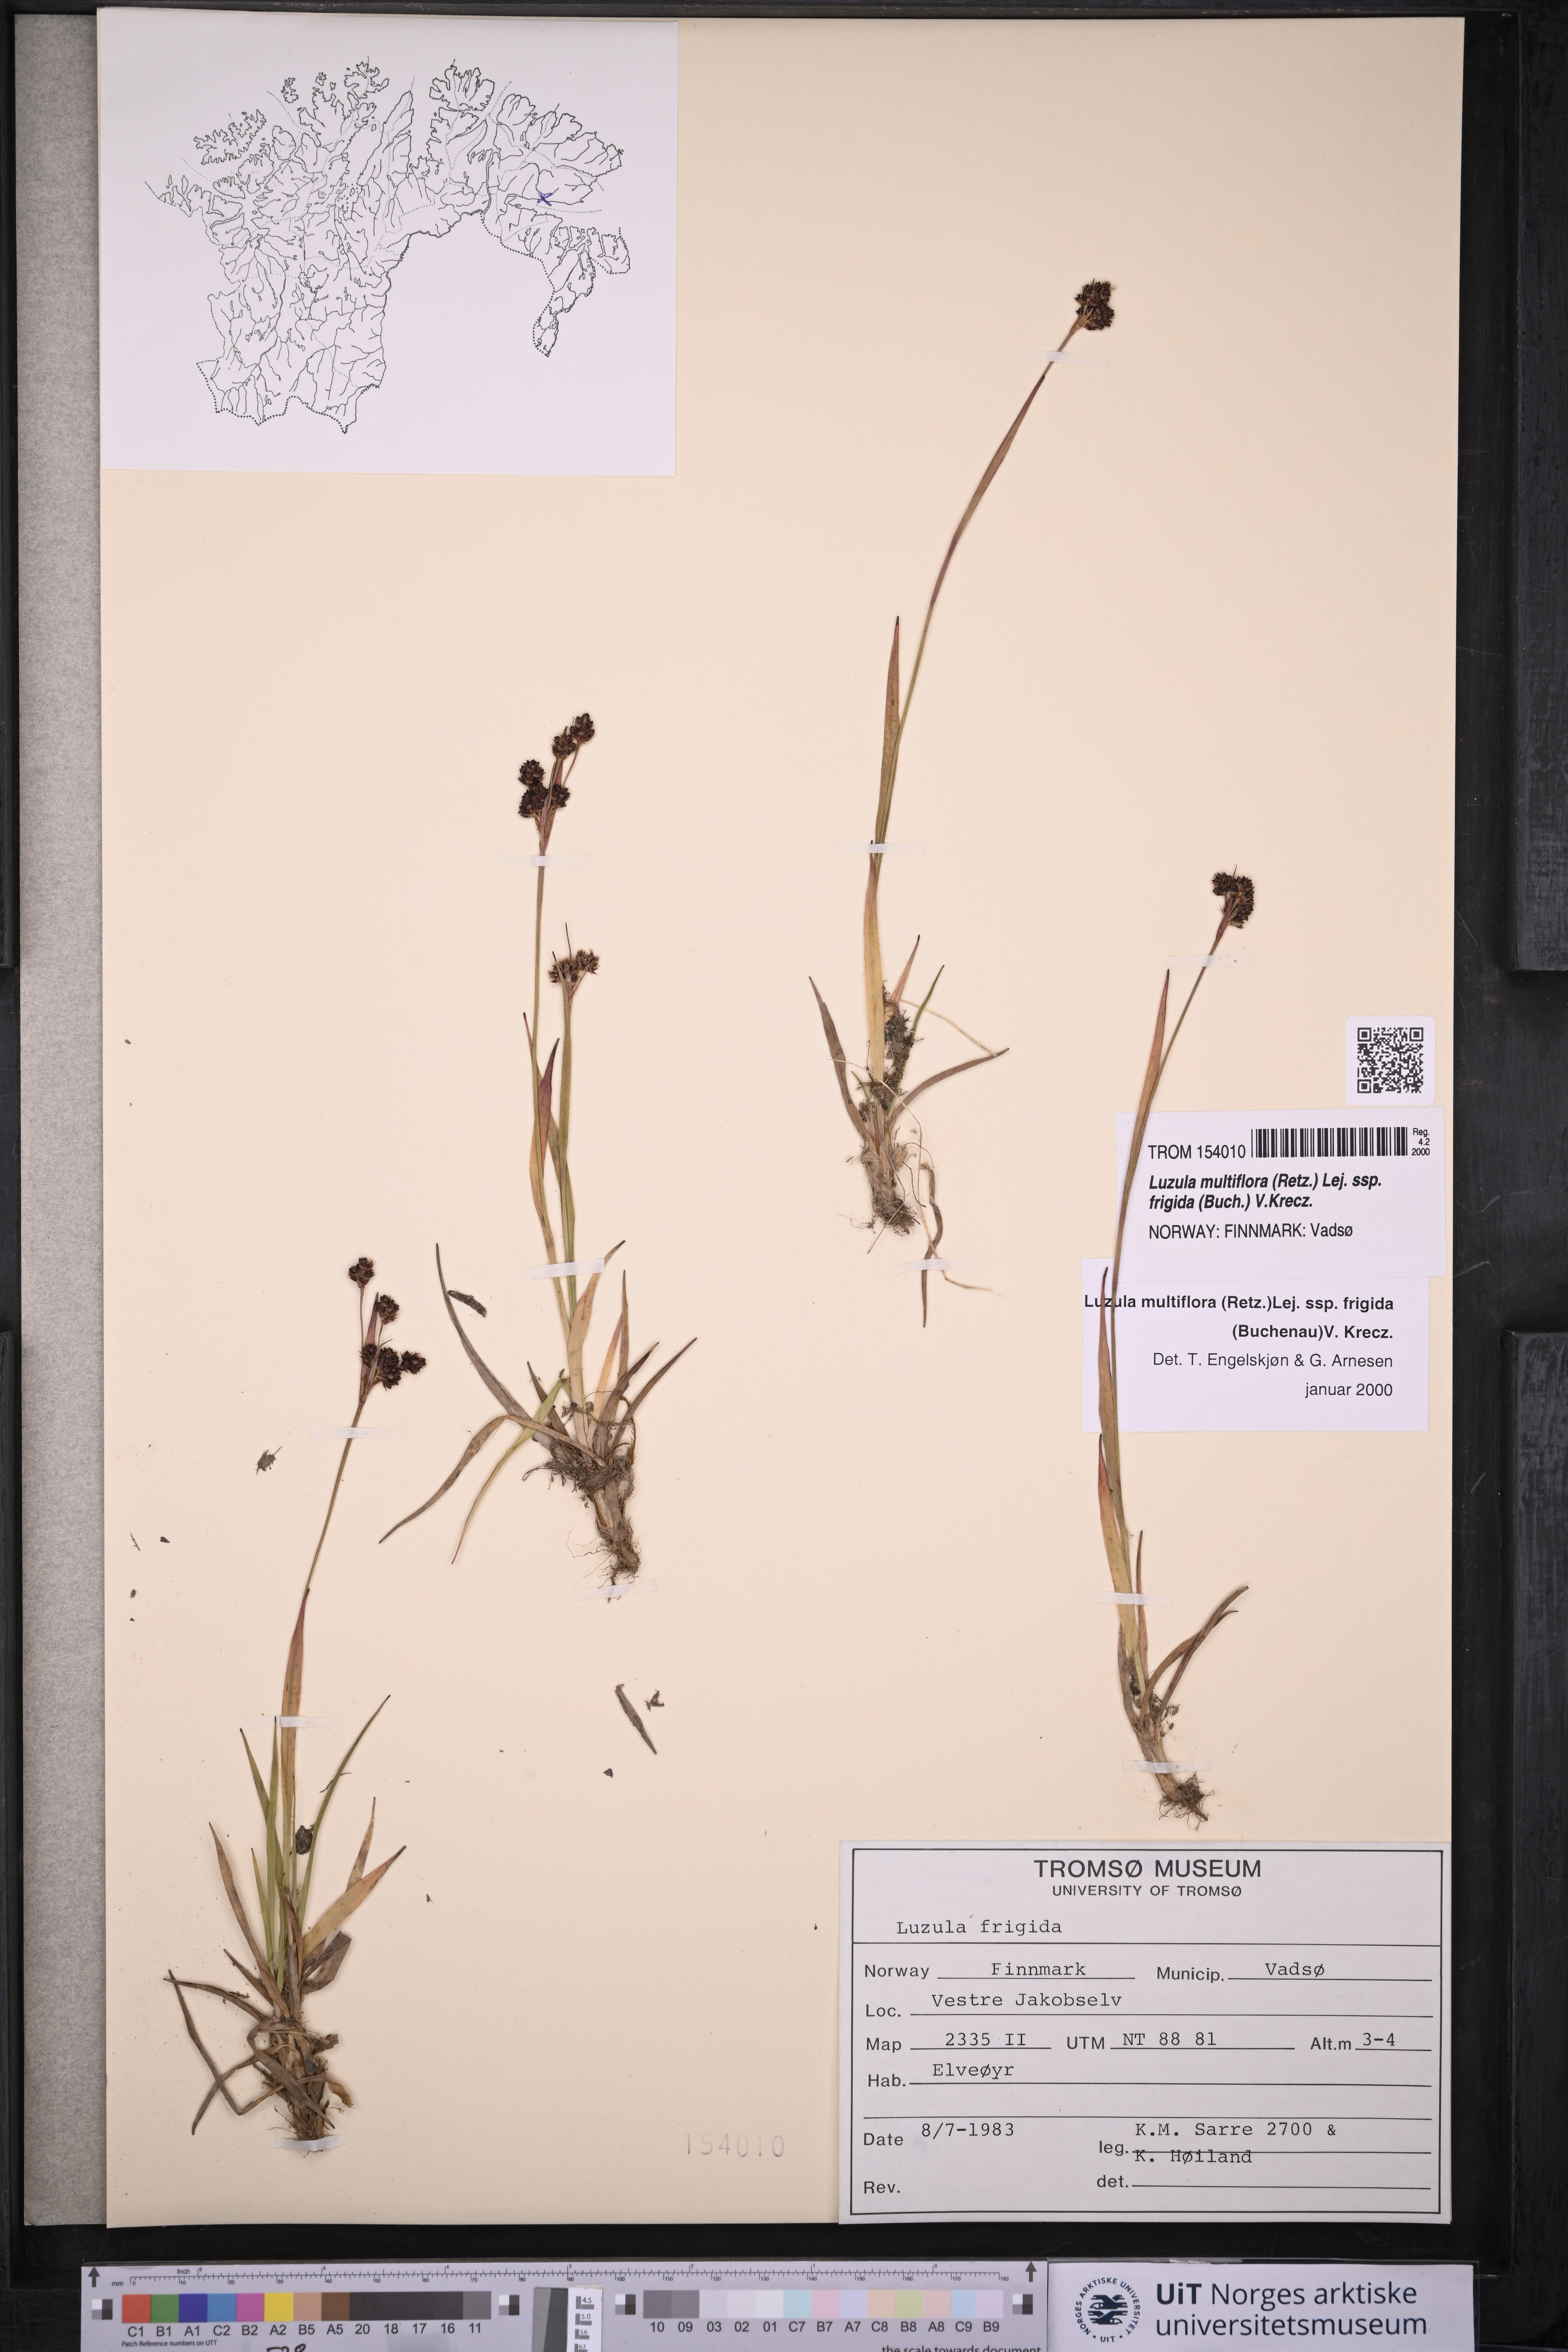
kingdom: Plantae
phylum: Tracheophyta
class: Liliopsida
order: Poales
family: Juncaceae
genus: Luzula
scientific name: Luzula multiflora
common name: Heath wood-rush
